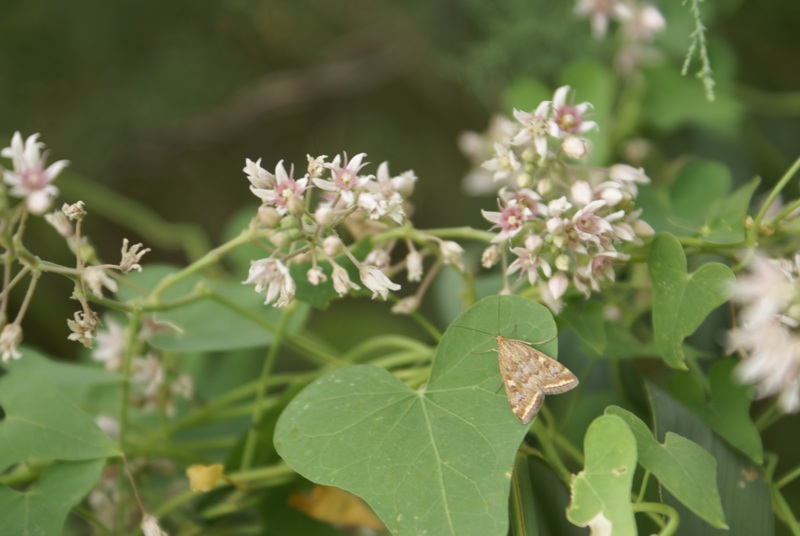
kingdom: Plantae
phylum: Tracheophyta
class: Magnoliopsida
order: Gentianales
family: Apocynaceae
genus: Cynanchum
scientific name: Cynanchum acutum
